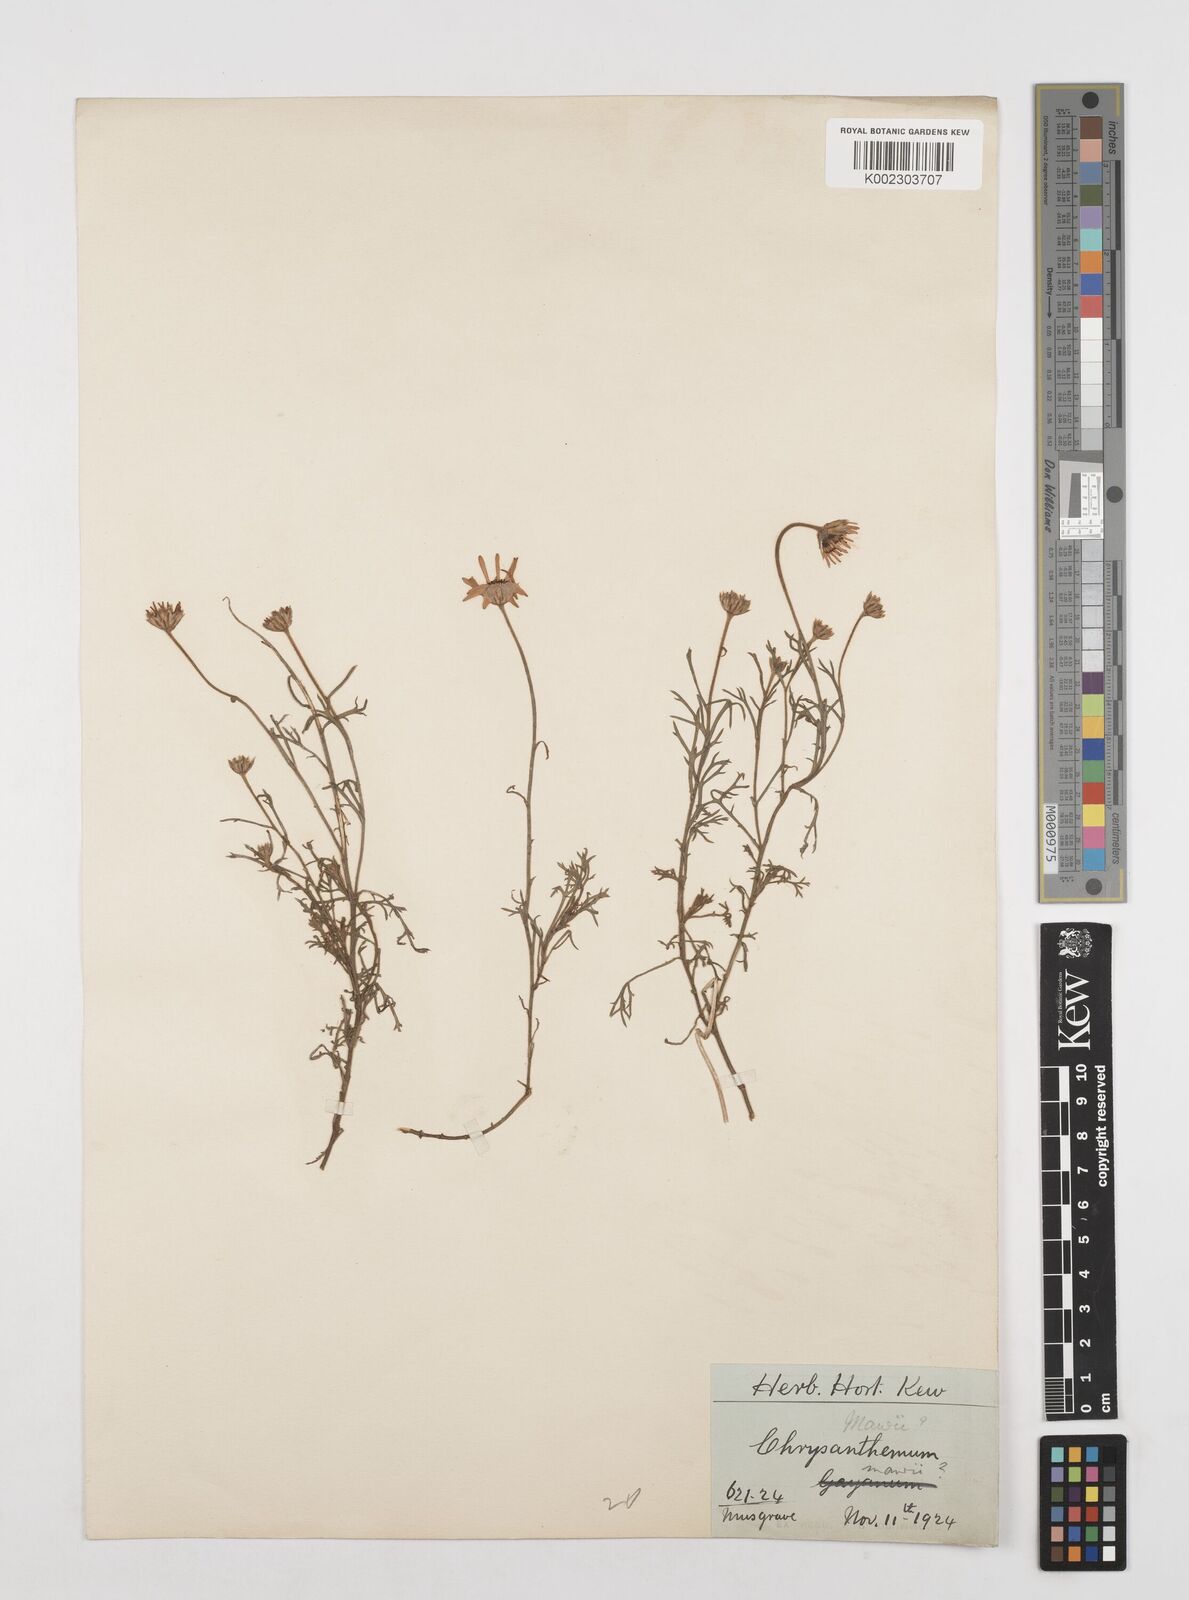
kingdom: Plantae
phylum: Tracheophyta
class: Magnoliopsida
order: Asterales
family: Asteraceae
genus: Tanacetum
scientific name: Tanacetum
